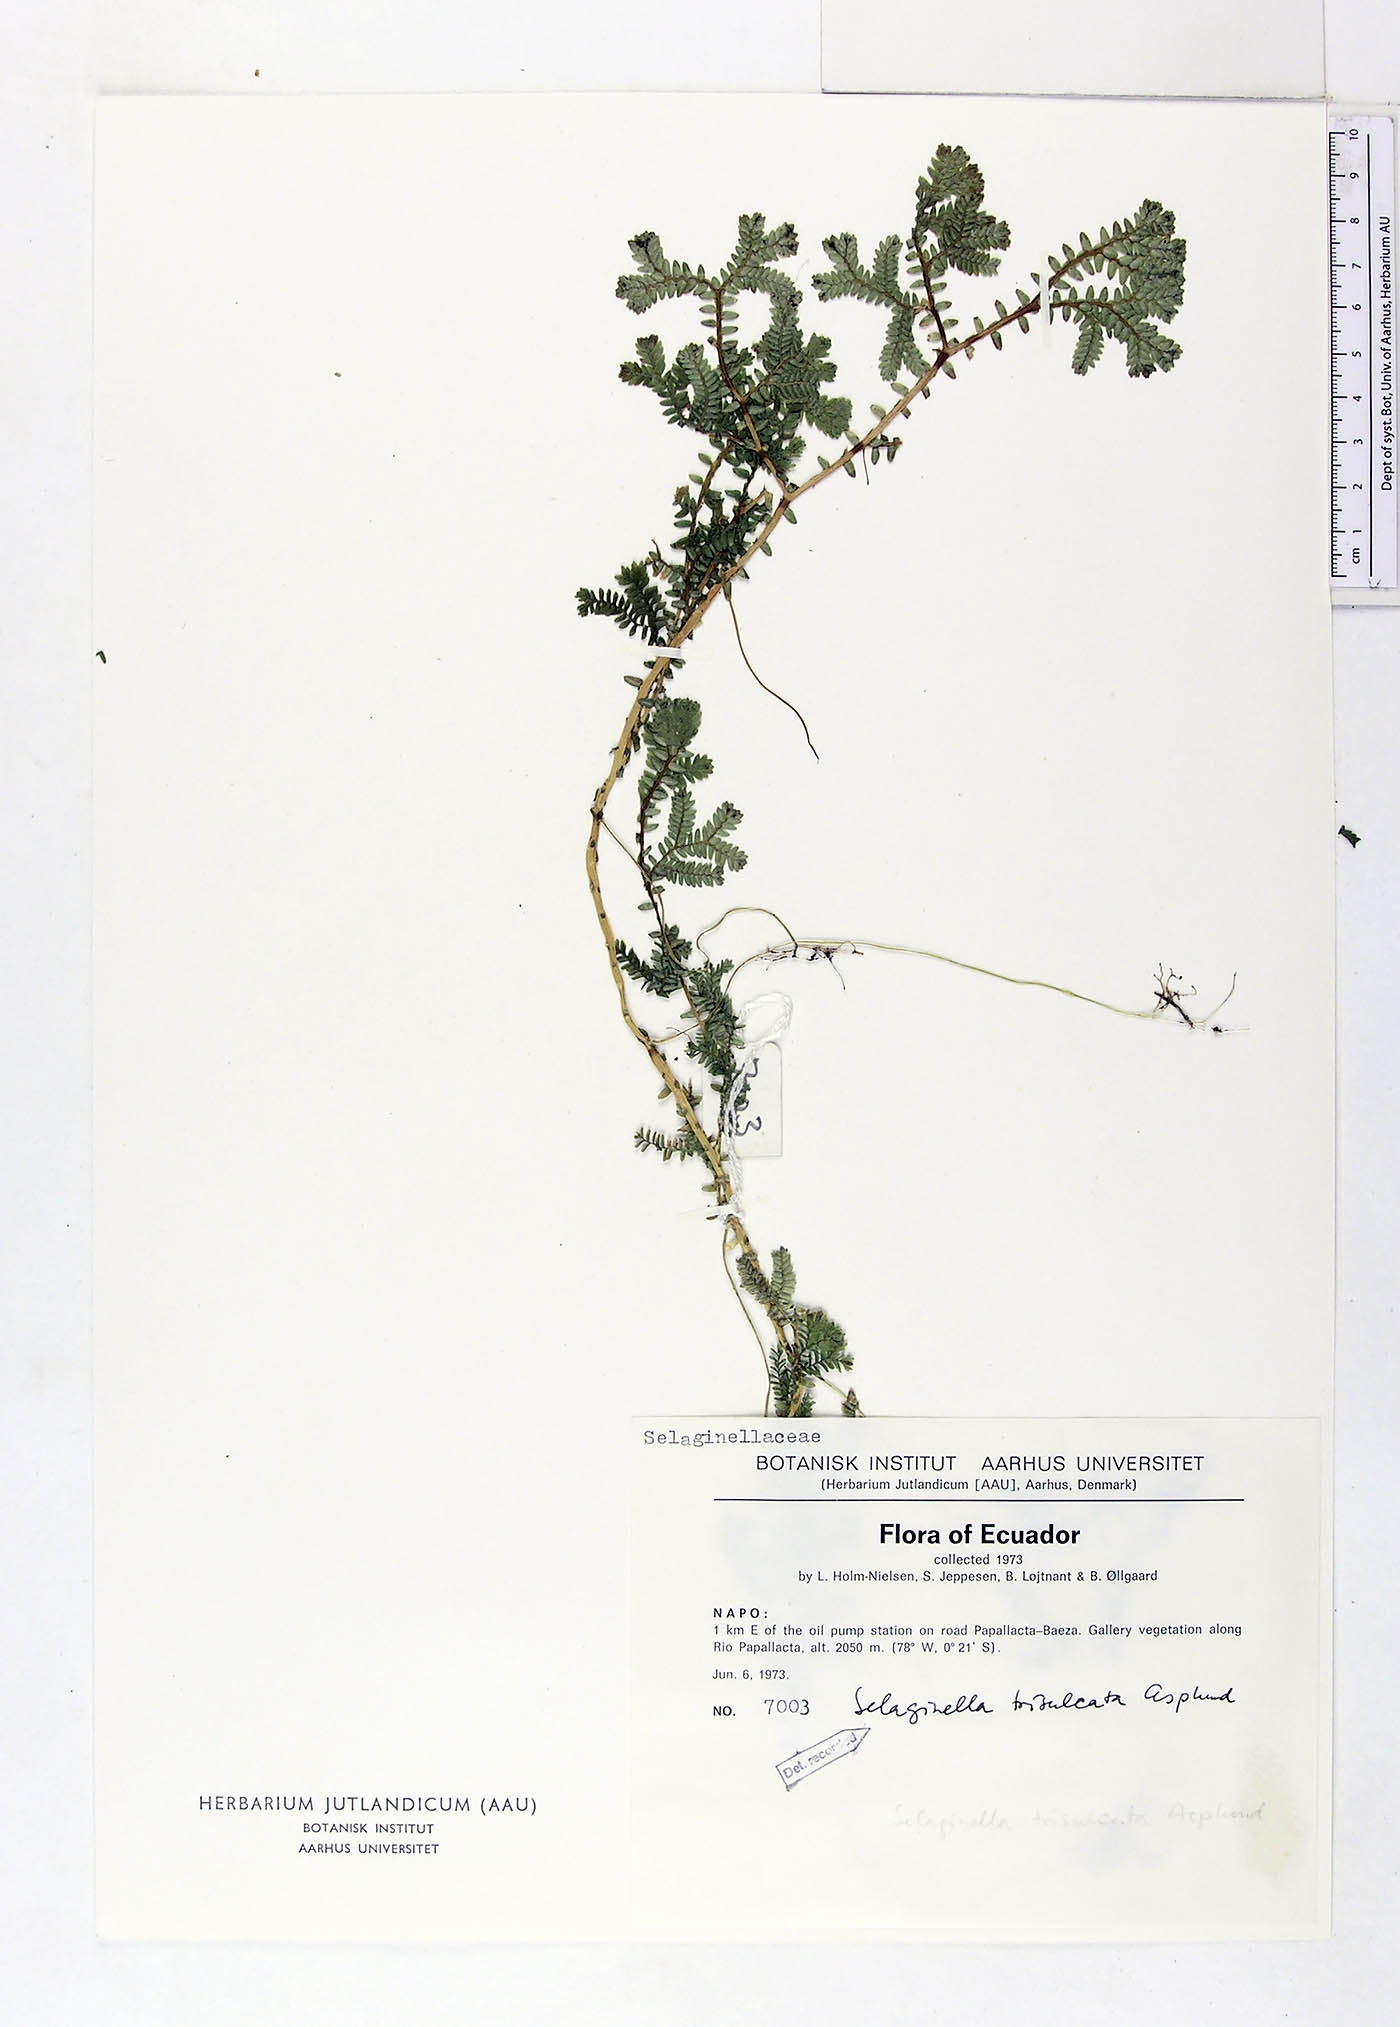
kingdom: Plantae
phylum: Tracheophyta
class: Lycopodiopsida
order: Selaginellales
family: Selaginellaceae
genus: Selaginella
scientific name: Selaginella trisulcata
